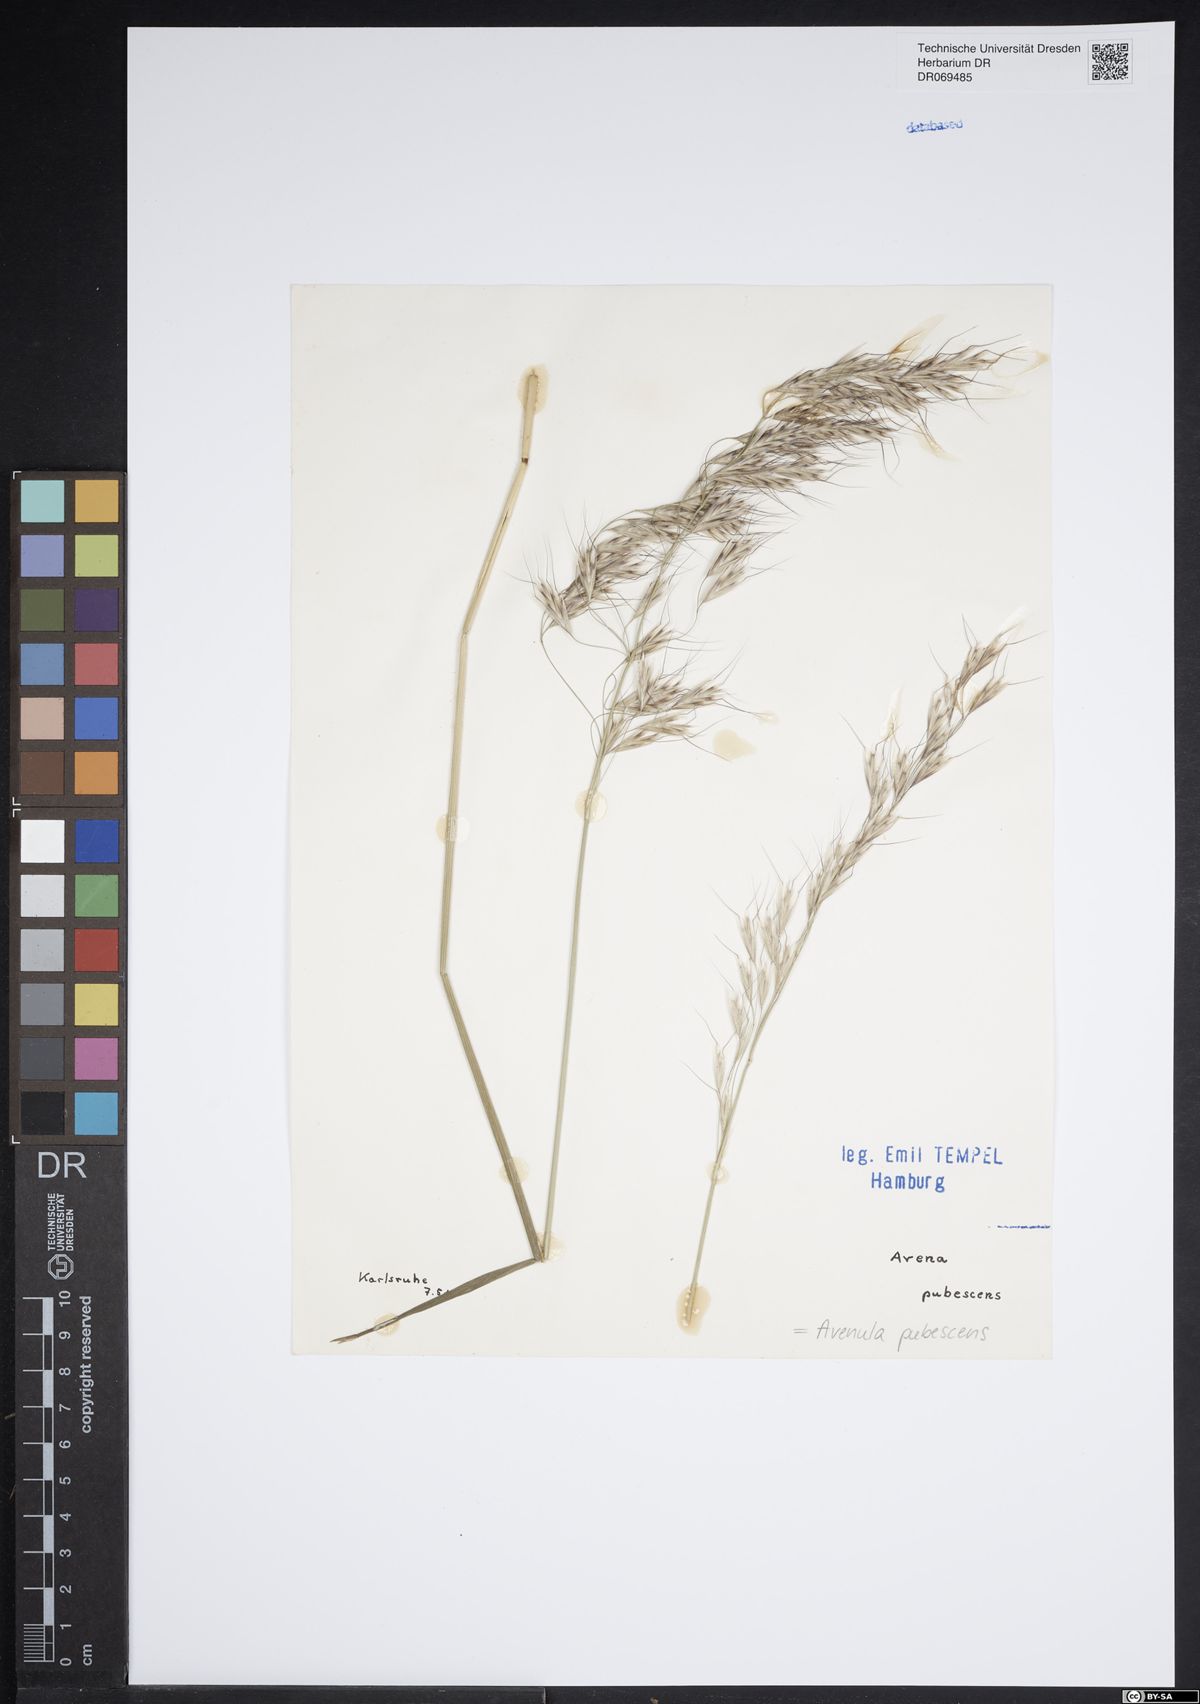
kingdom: Plantae
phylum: Tracheophyta
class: Liliopsida
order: Poales
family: Poaceae
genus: Avenula
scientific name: Avenula pubescens
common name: Downy alpine oatgrass
